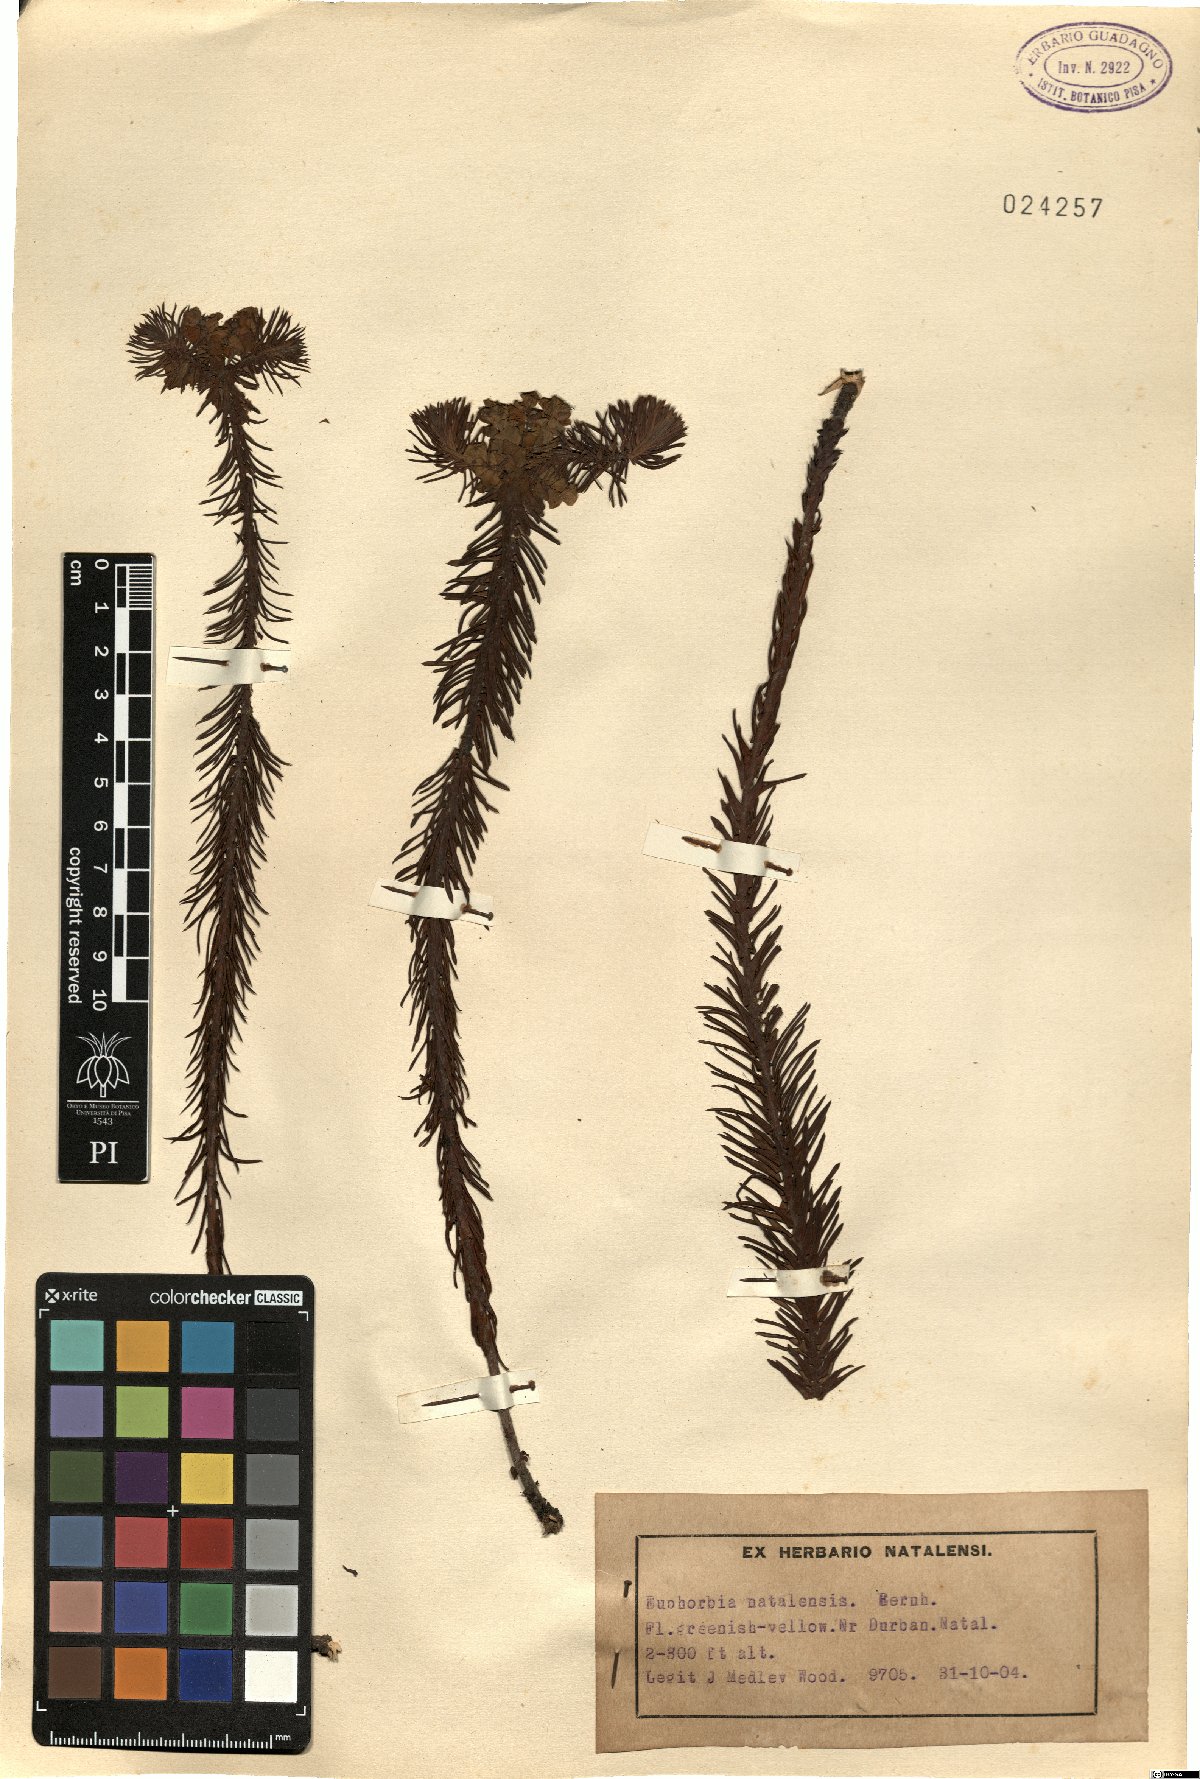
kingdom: Plantae
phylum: Tracheophyta
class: Magnoliopsida
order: Malpighiales
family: Euphorbiaceae
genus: Euphorbia
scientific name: Euphorbia natalensis
